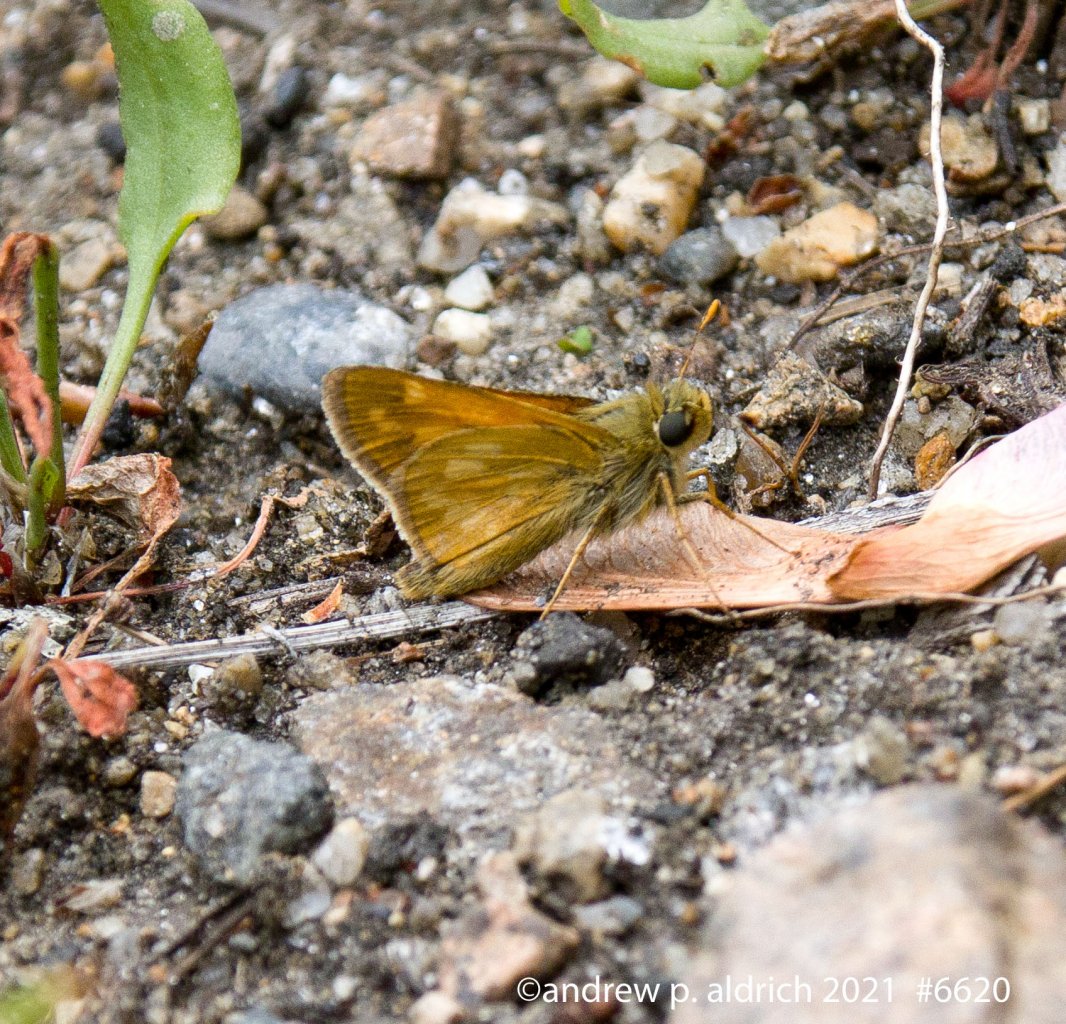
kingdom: Animalia
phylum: Arthropoda
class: Insecta
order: Lepidoptera
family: Hesperiidae
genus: Hesperia
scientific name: Hesperia sassacus
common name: Sassacus Skipper
